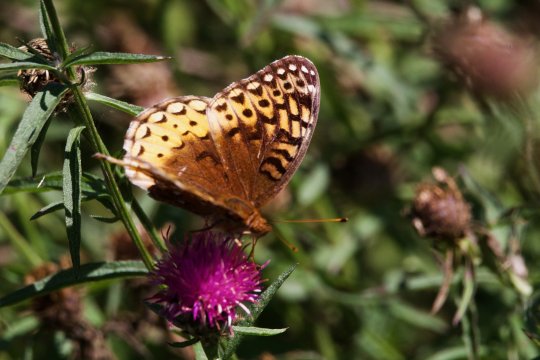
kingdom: Animalia
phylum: Arthropoda
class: Insecta
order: Lepidoptera
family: Nymphalidae
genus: Speyeria
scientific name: Speyeria cybele
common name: Great Spangled Fritillary
